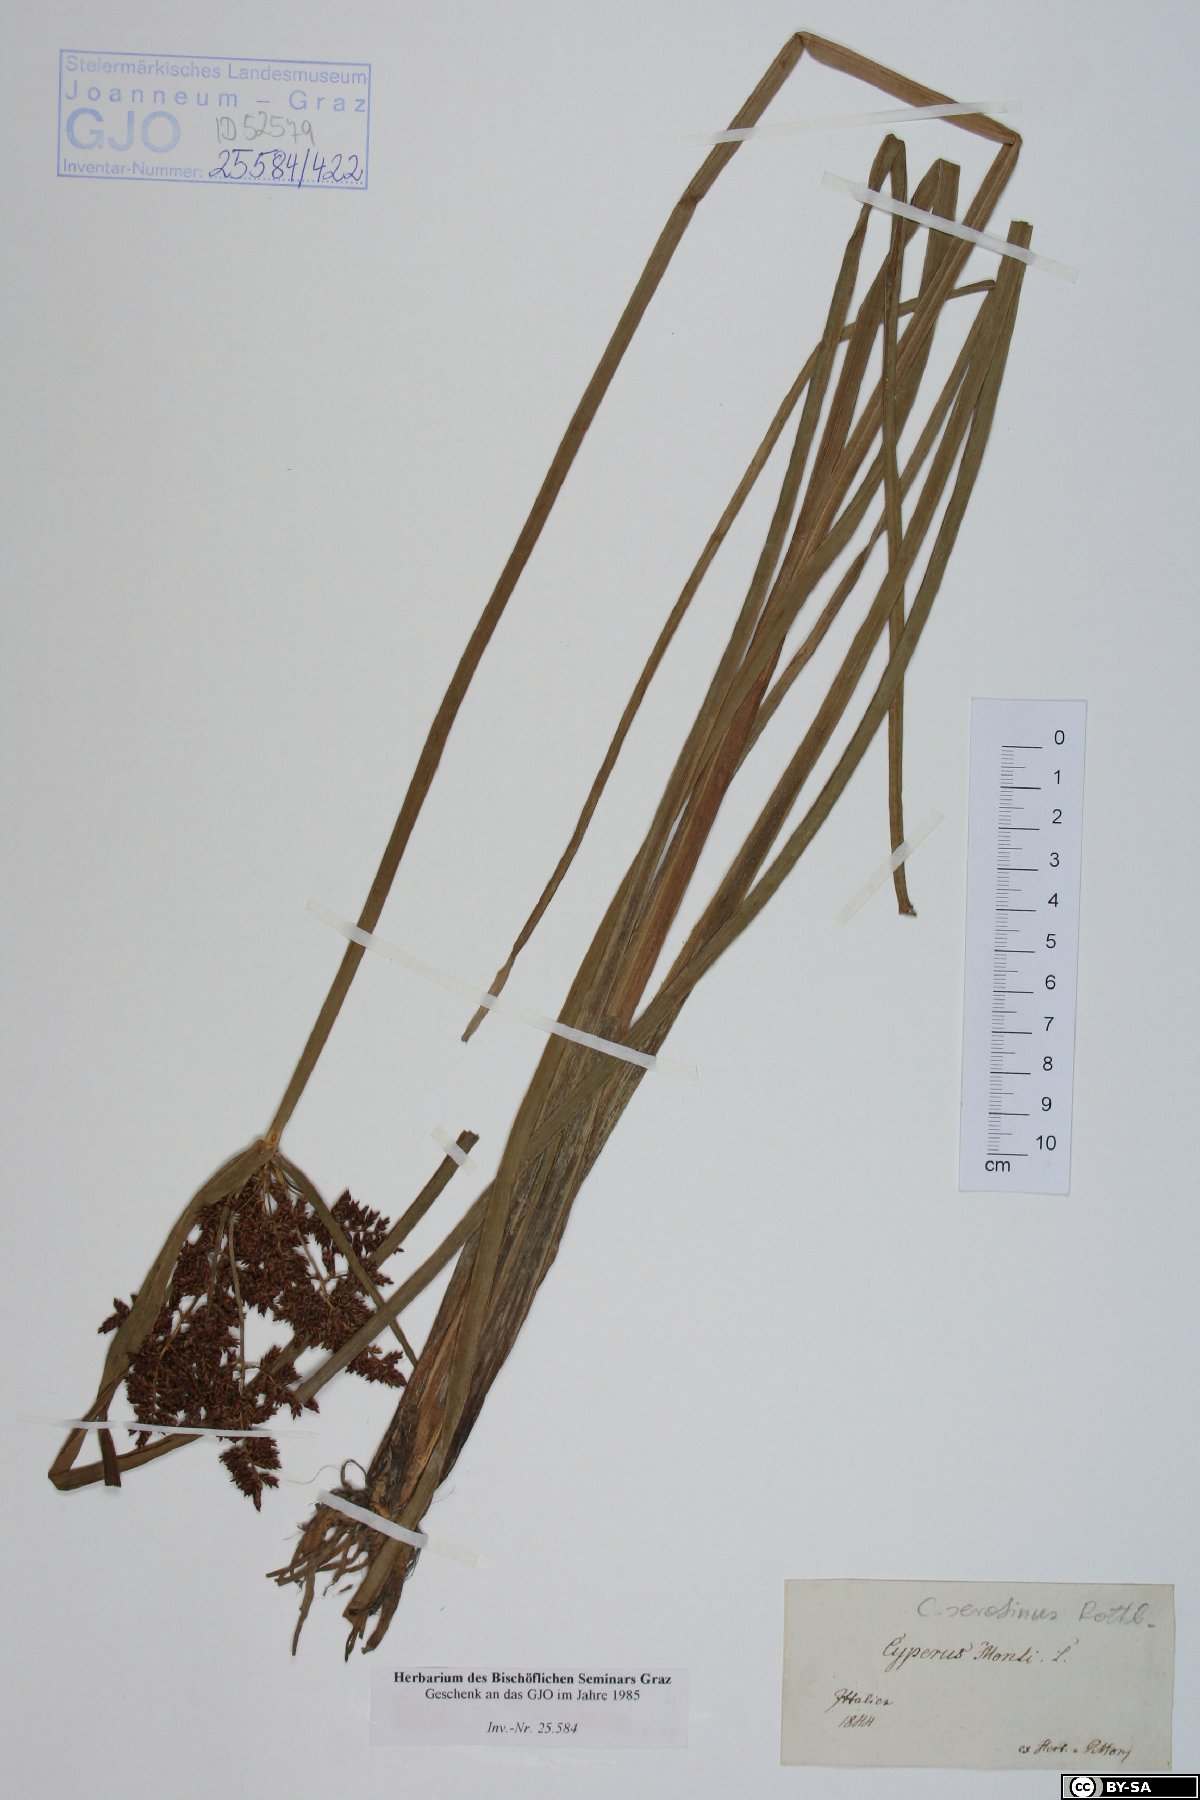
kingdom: Plantae
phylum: Tracheophyta
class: Liliopsida
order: Poales
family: Cyperaceae
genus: Cyperus
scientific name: Cyperus serotinus
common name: Tidalmarsh flatsedge
